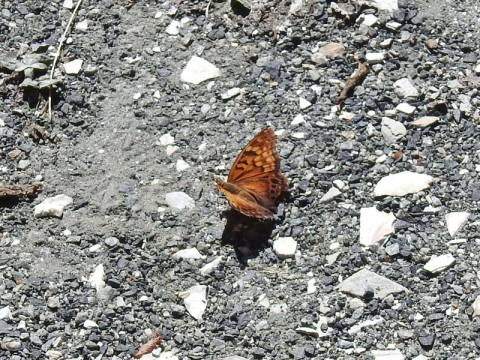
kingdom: Animalia
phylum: Arthropoda
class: Insecta
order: Lepidoptera
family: Nymphalidae
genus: Asterocampa
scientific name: Asterocampa clyton
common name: Tawny Emperor
